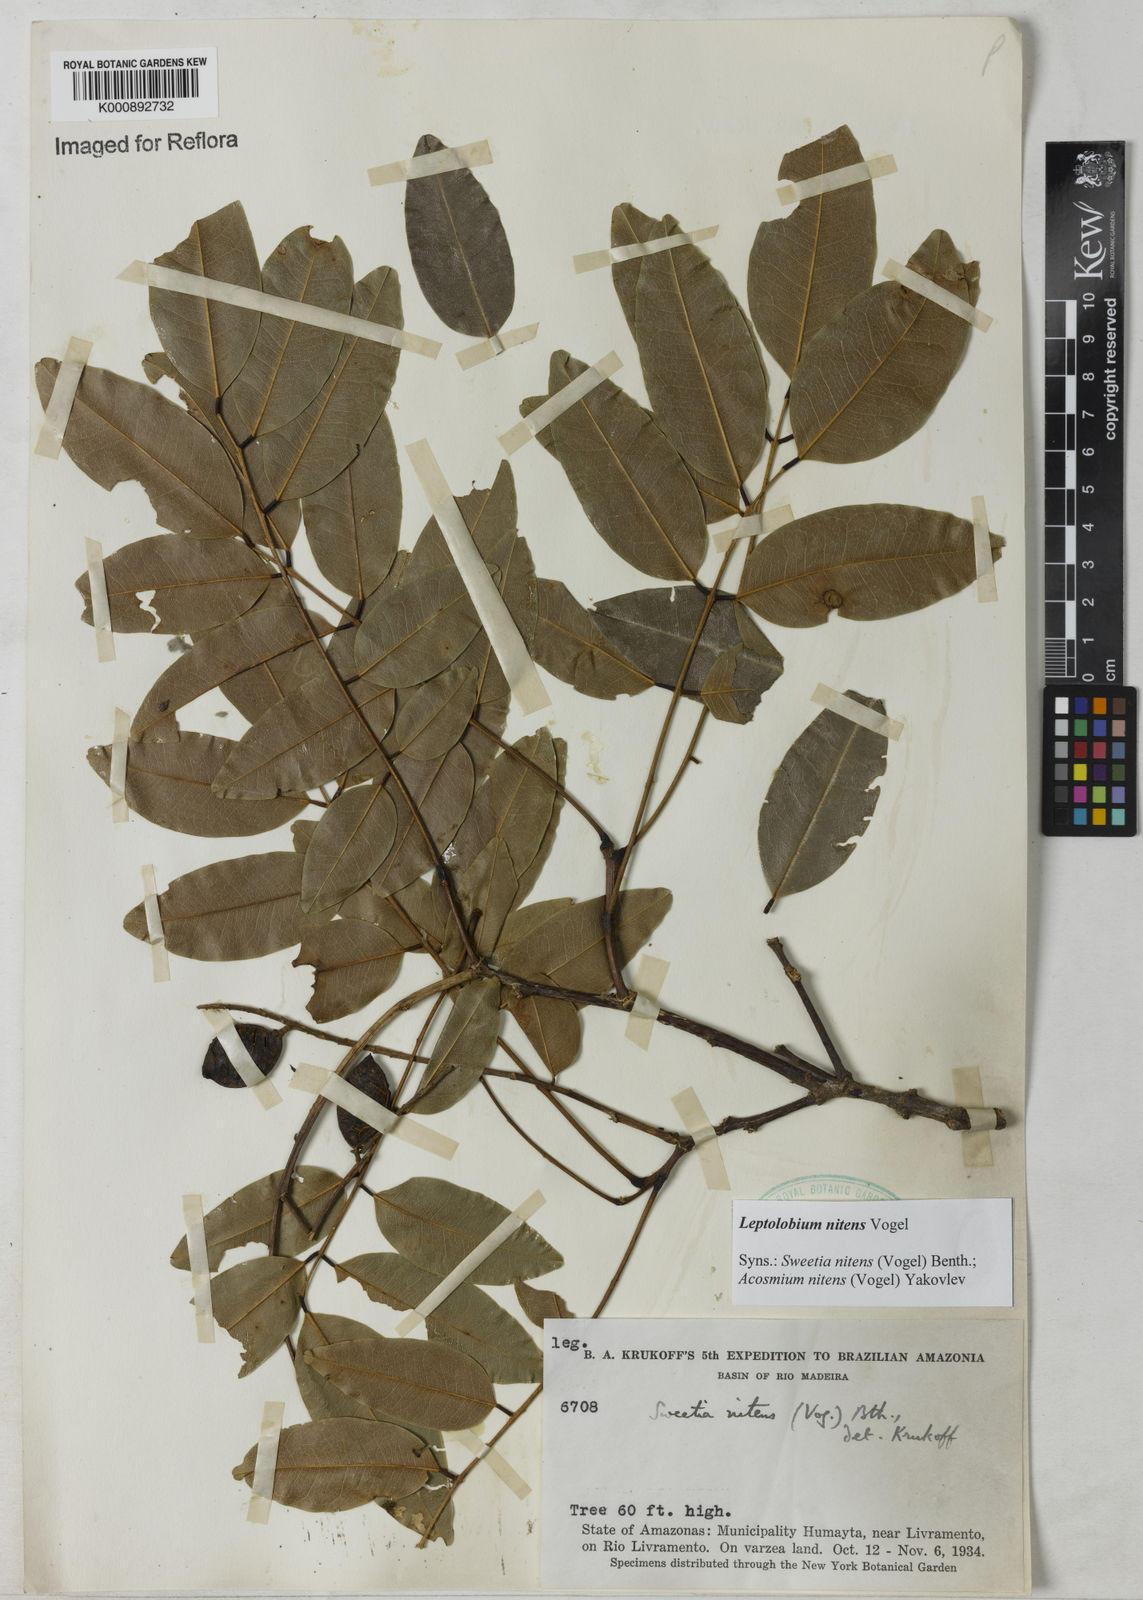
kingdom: Plantae
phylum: Tracheophyta
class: Magnoliopsida
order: Fabales
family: Fabaceae
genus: Leptolobium
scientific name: Leptolobium nitens
